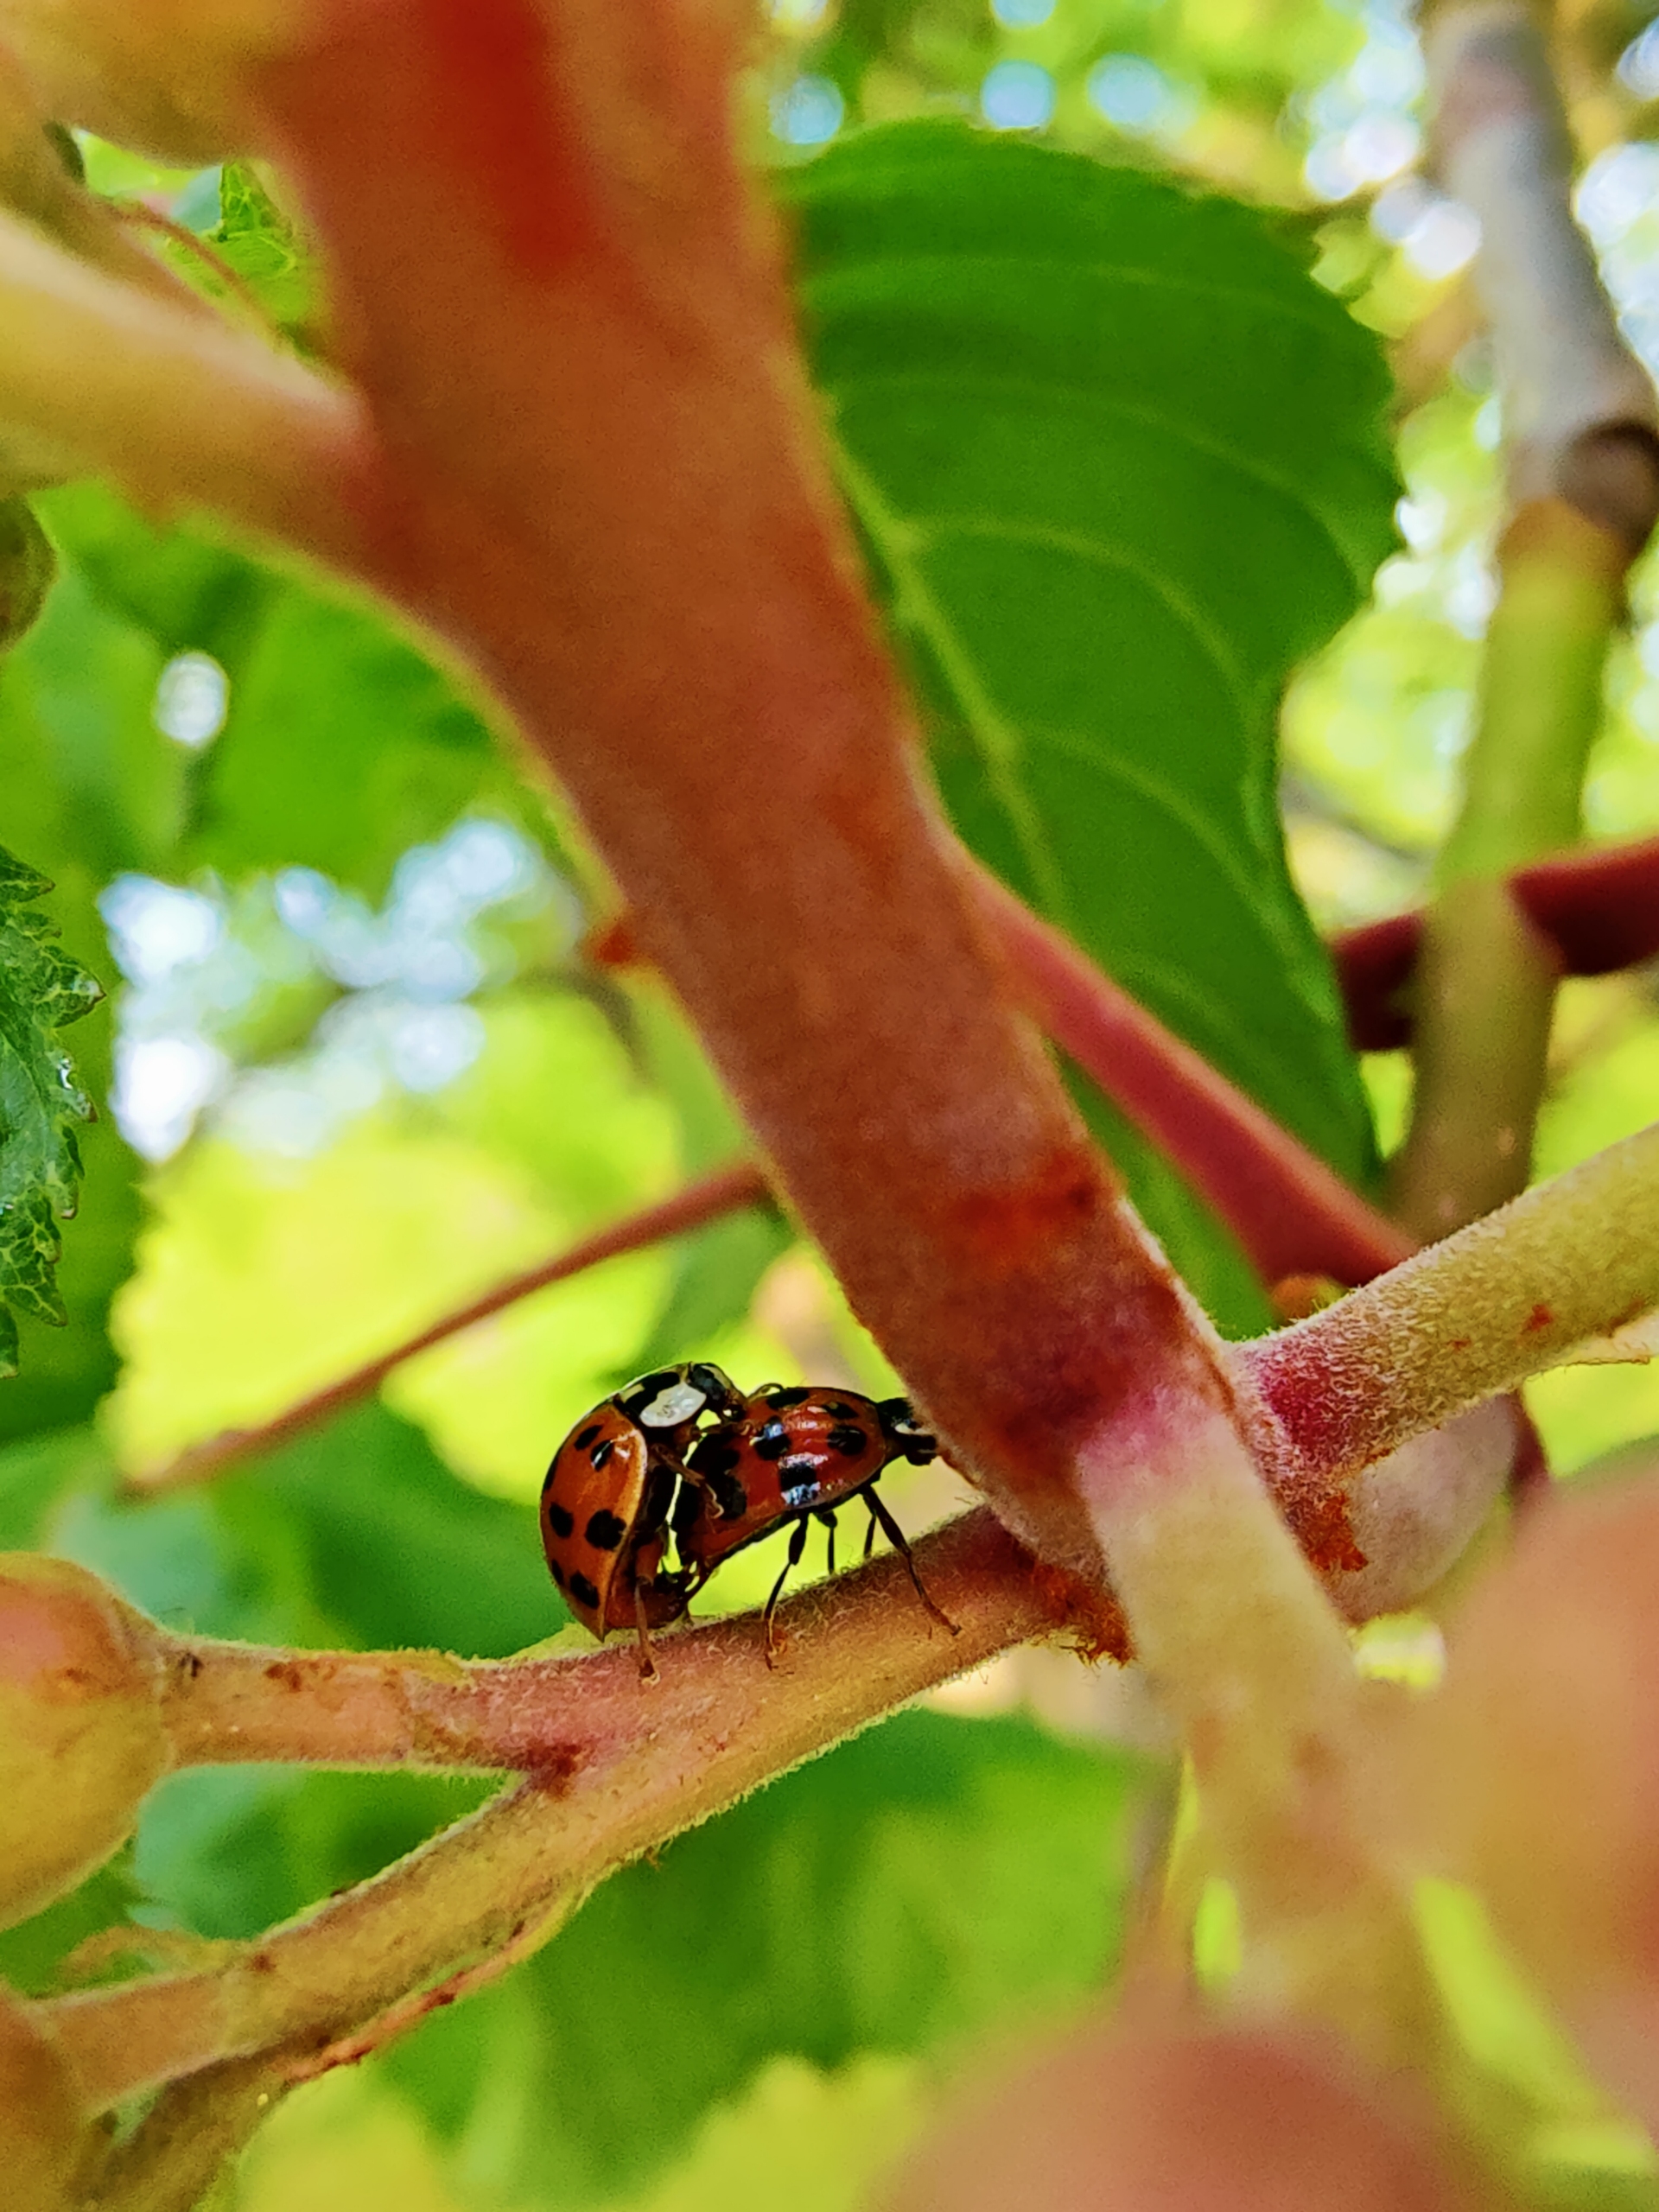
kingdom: Animalia
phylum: Arthropoda
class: Insecta
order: Coleoptera
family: Coccinellidae
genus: Harmonia
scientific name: Harmonia axyridis
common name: Harlekinmariehøne
